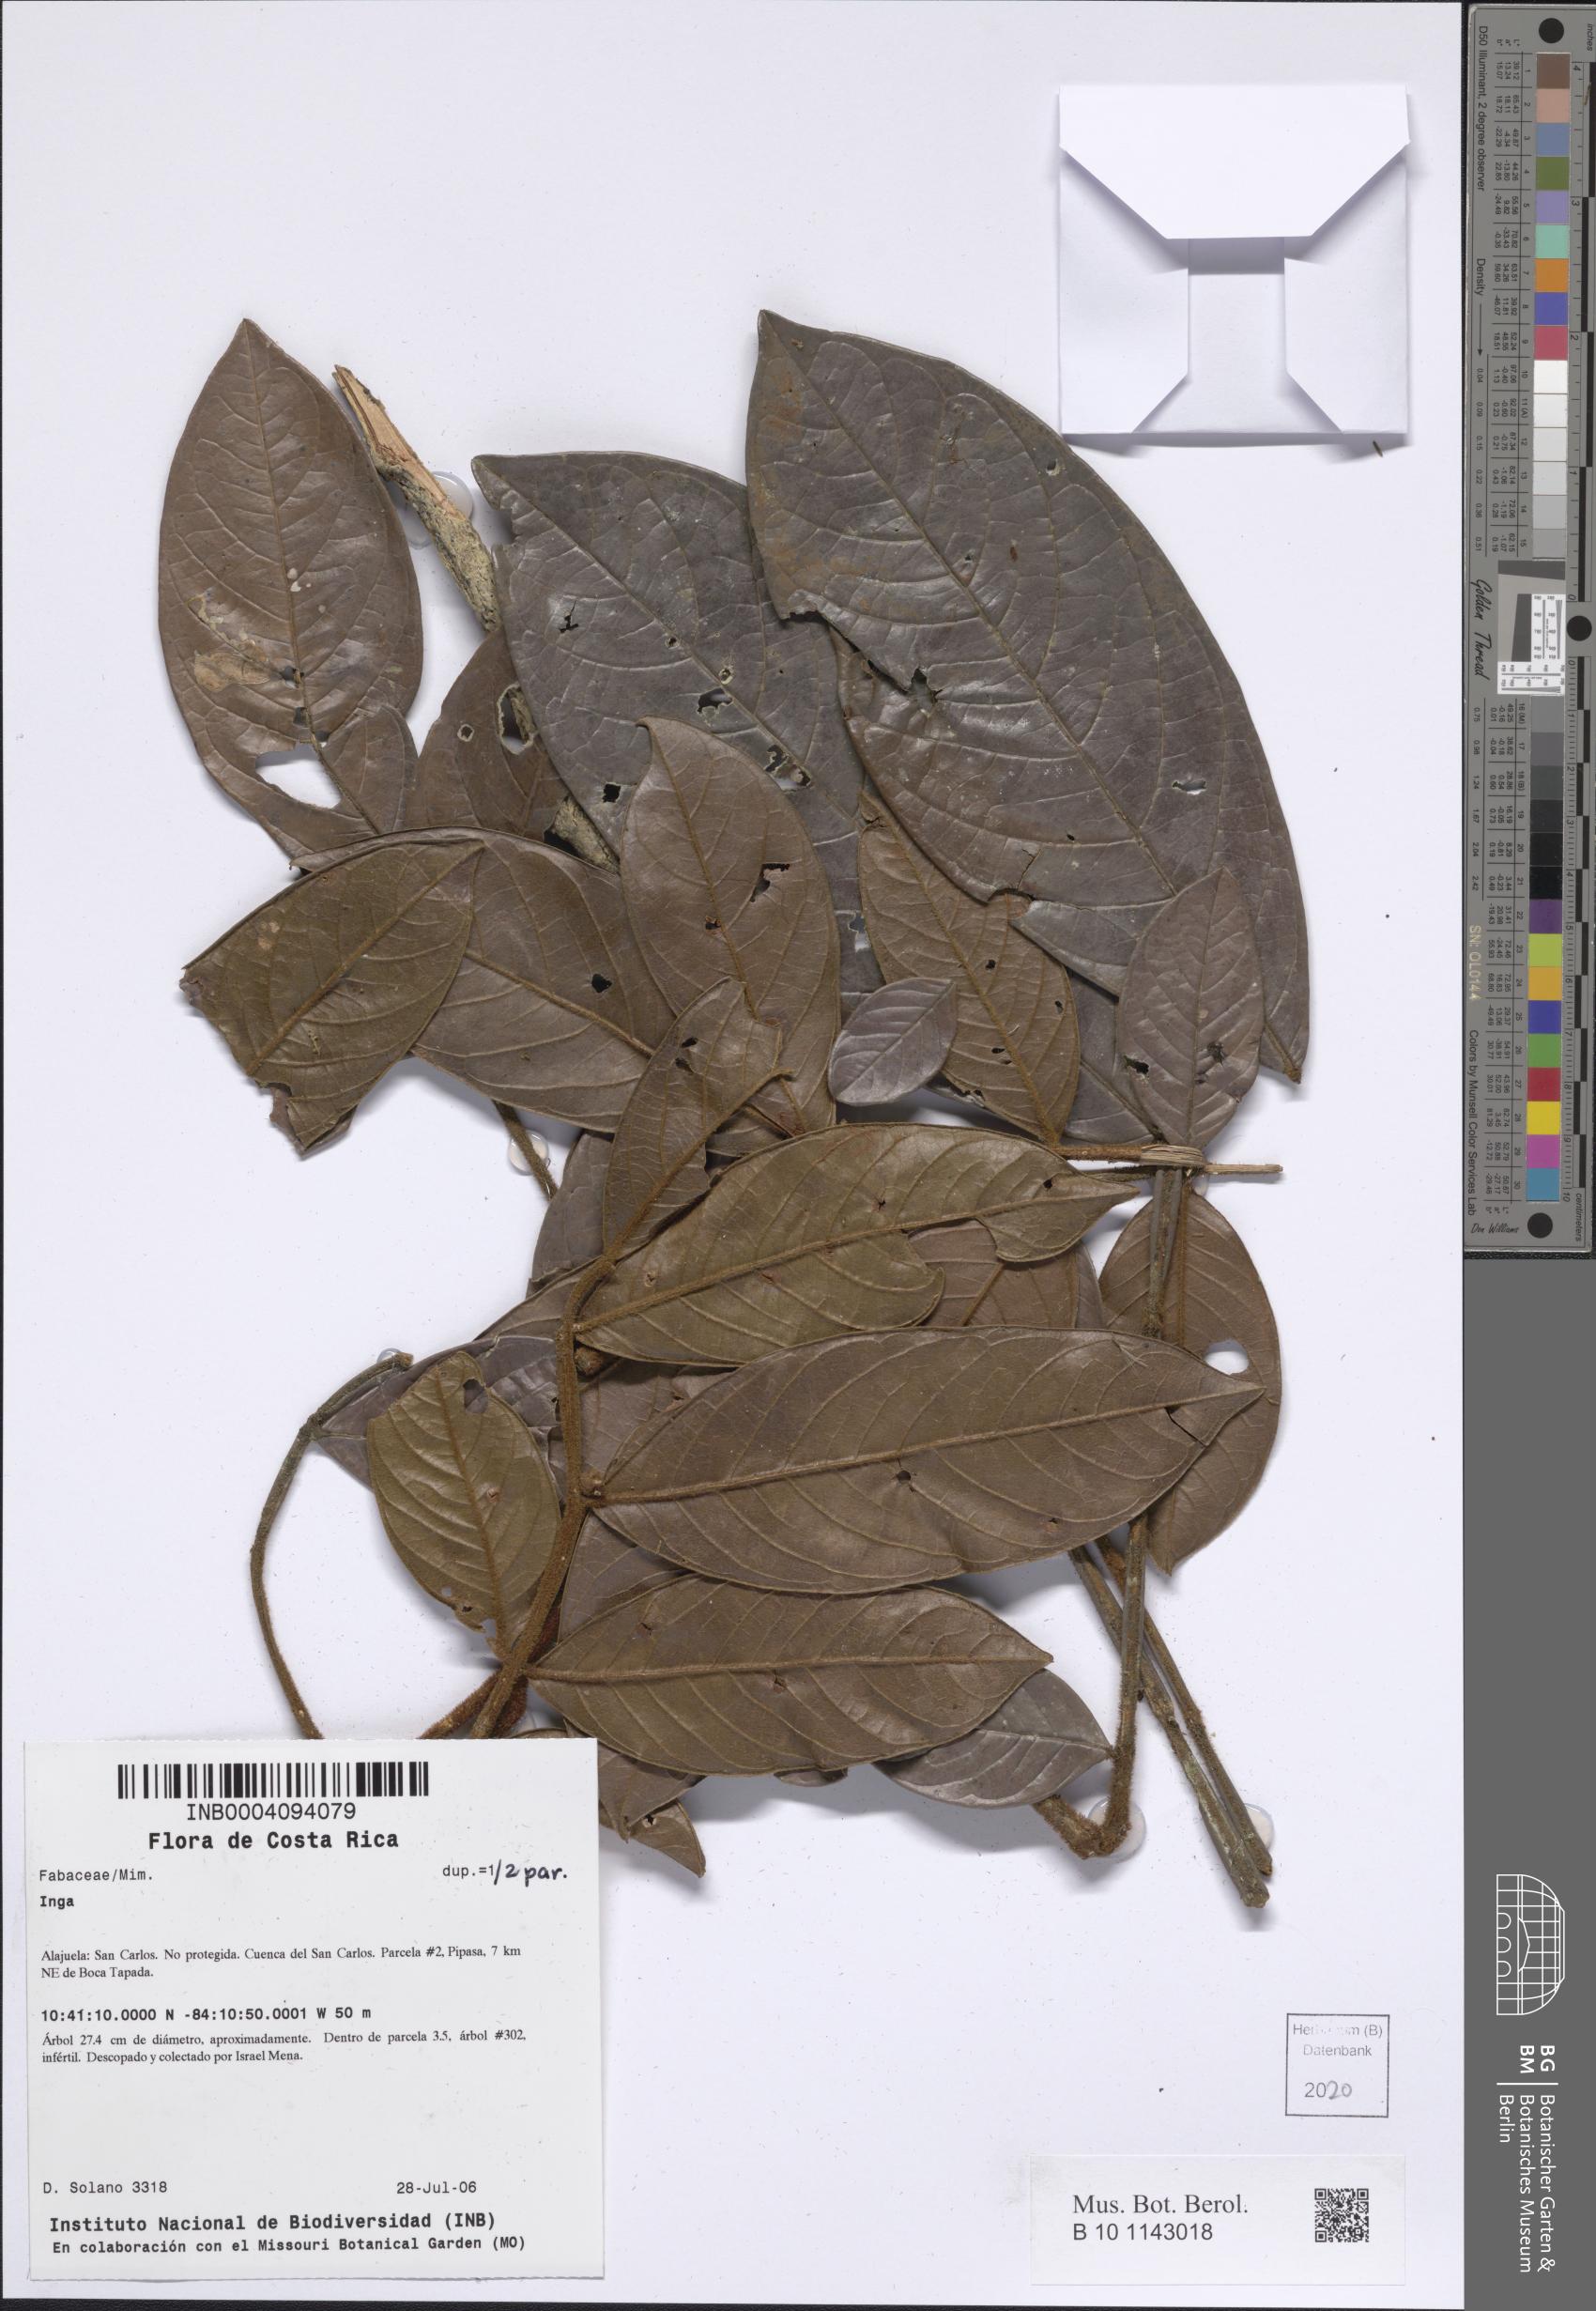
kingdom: Plantae
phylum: Tracheophyta
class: Magnoliopsida
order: Fabales
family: Fabaceae
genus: Inga
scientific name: Inga
